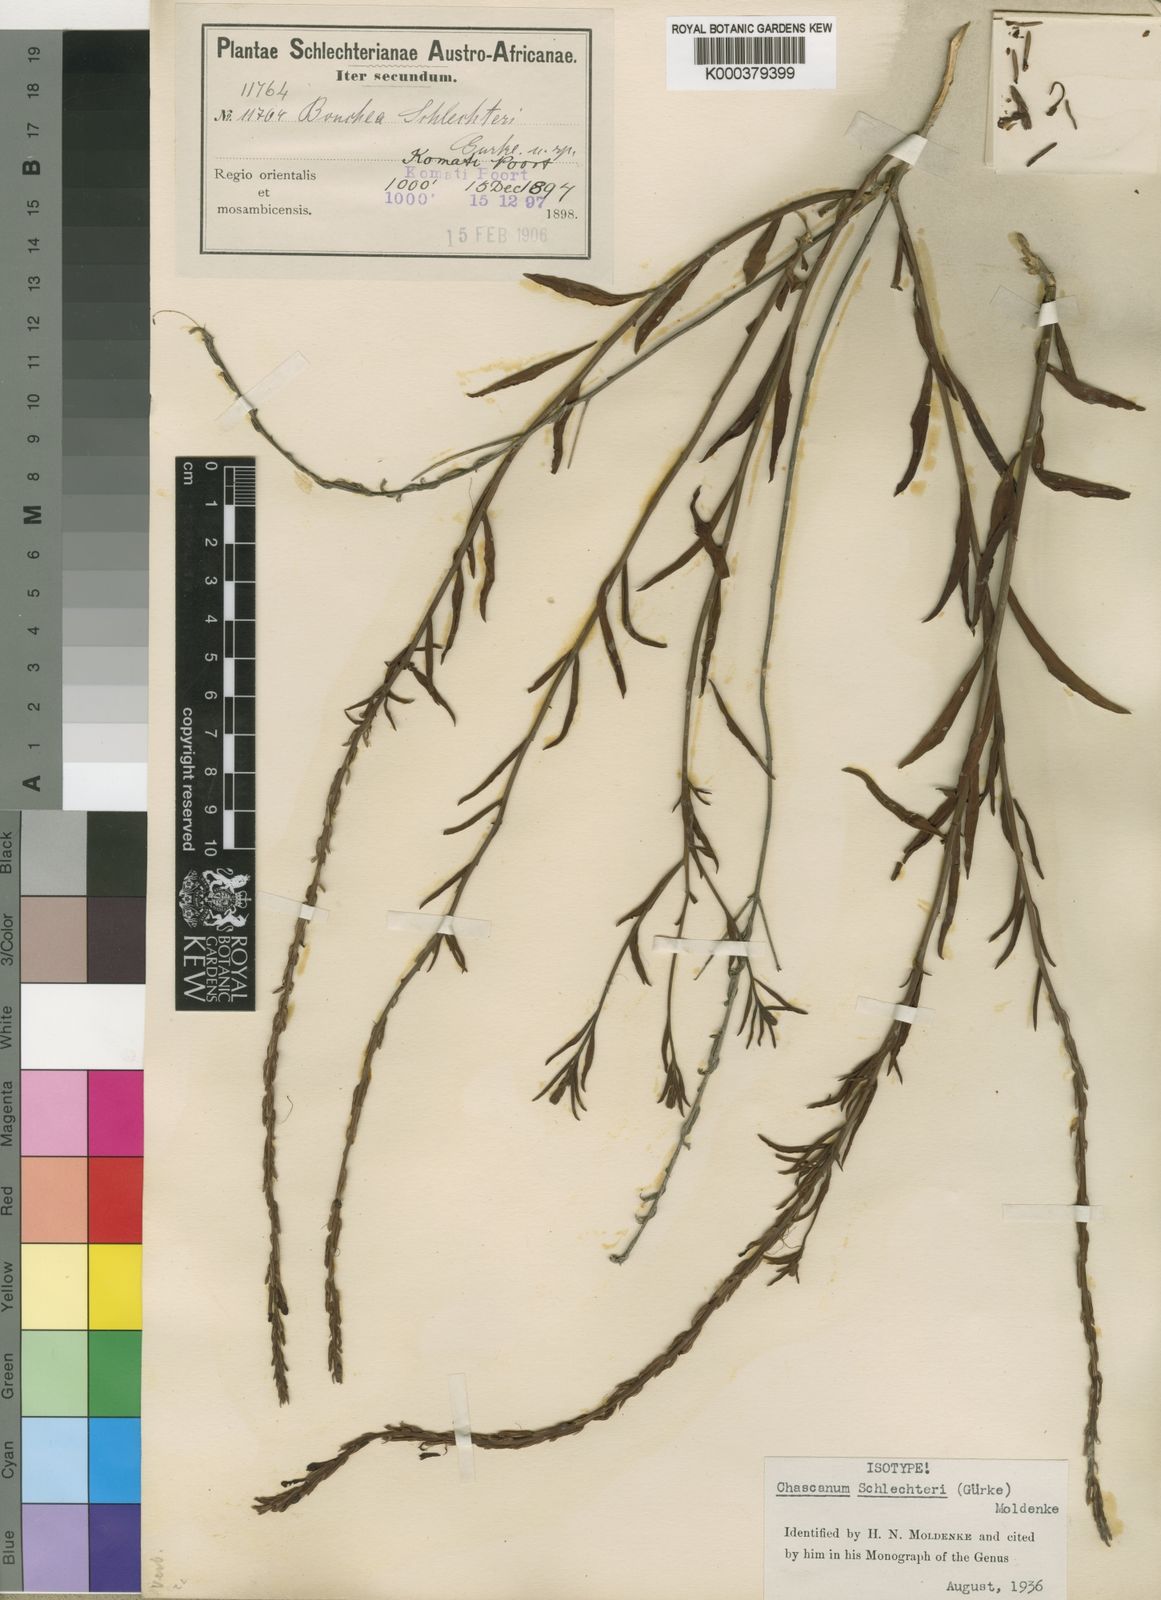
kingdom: Plantae
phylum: Tracheophyta
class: Magnoliopsida
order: Lamiales
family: Verbenaceae
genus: Chascanum
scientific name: Chascanum
